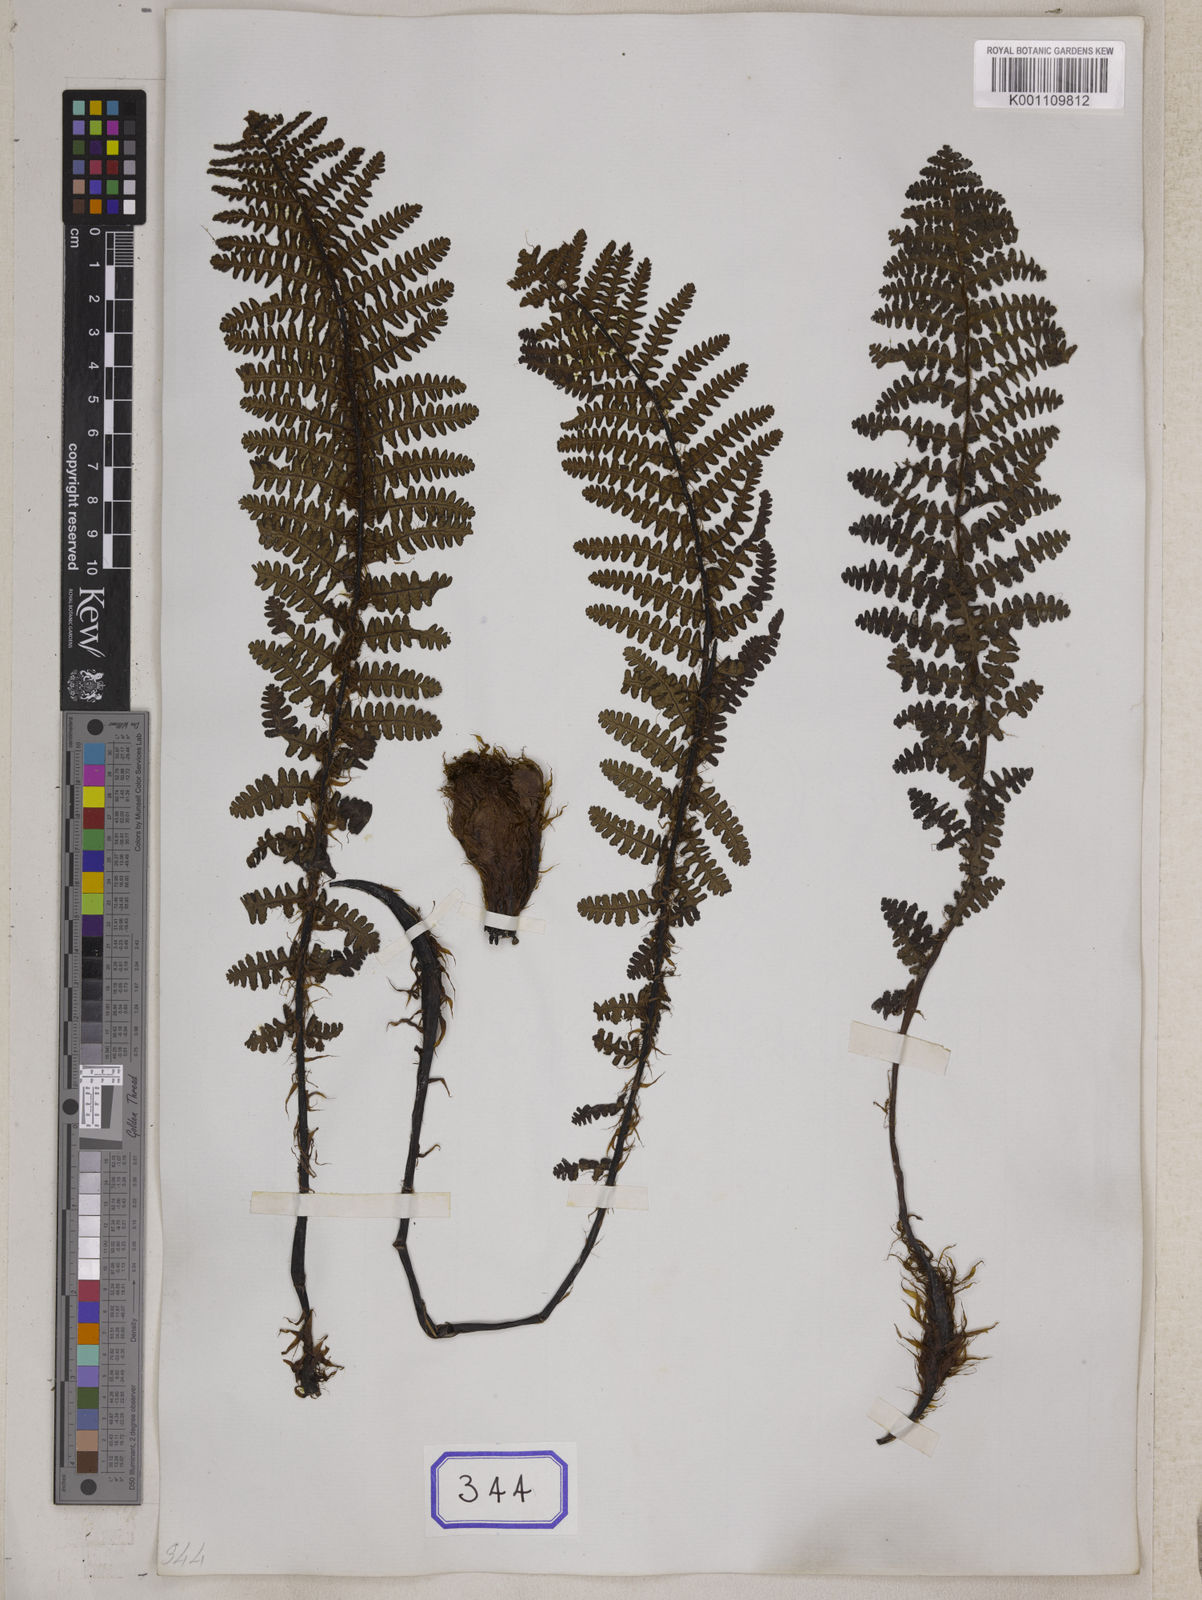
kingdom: Plantae
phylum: Tracheophyta
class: Polypodiopsida
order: Polypodiales
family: Athyriaceae
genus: Athyrium
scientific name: Athyrium wallichianum
